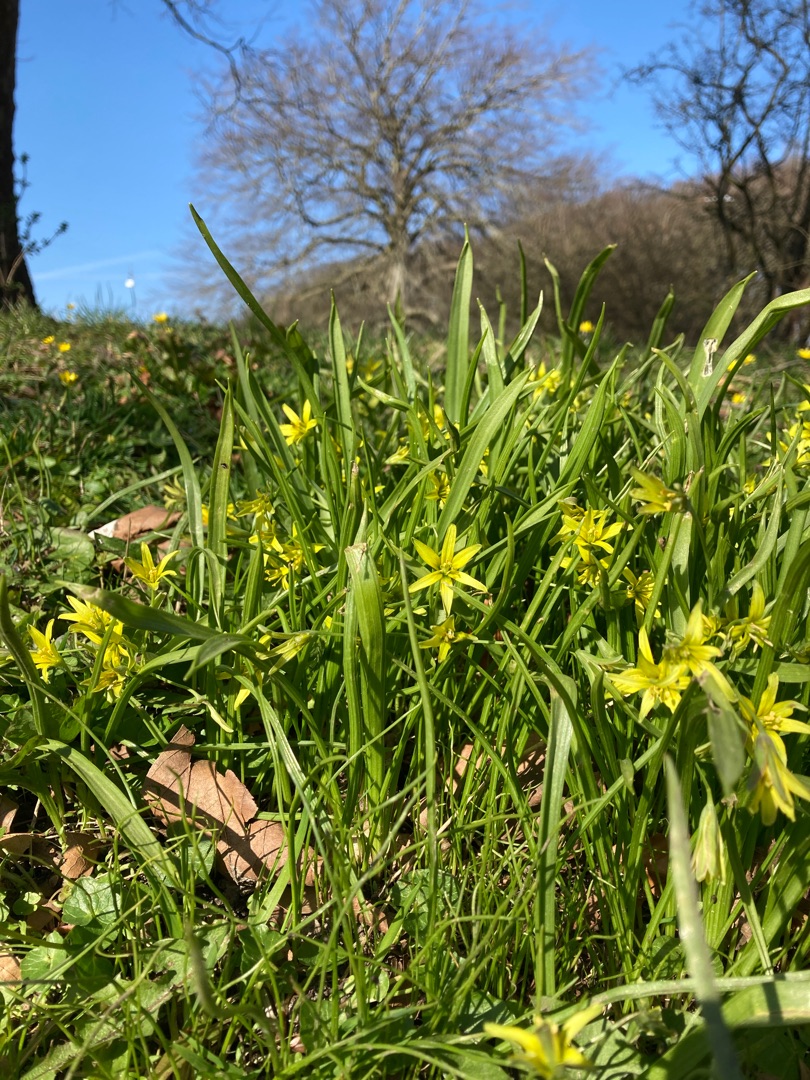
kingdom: Plantae
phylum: Tracheophyta
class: Liliopsida
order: Liliales
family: Liliaceae
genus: Gagea
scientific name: Gagea lutea
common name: Almindelig guldstjerne
